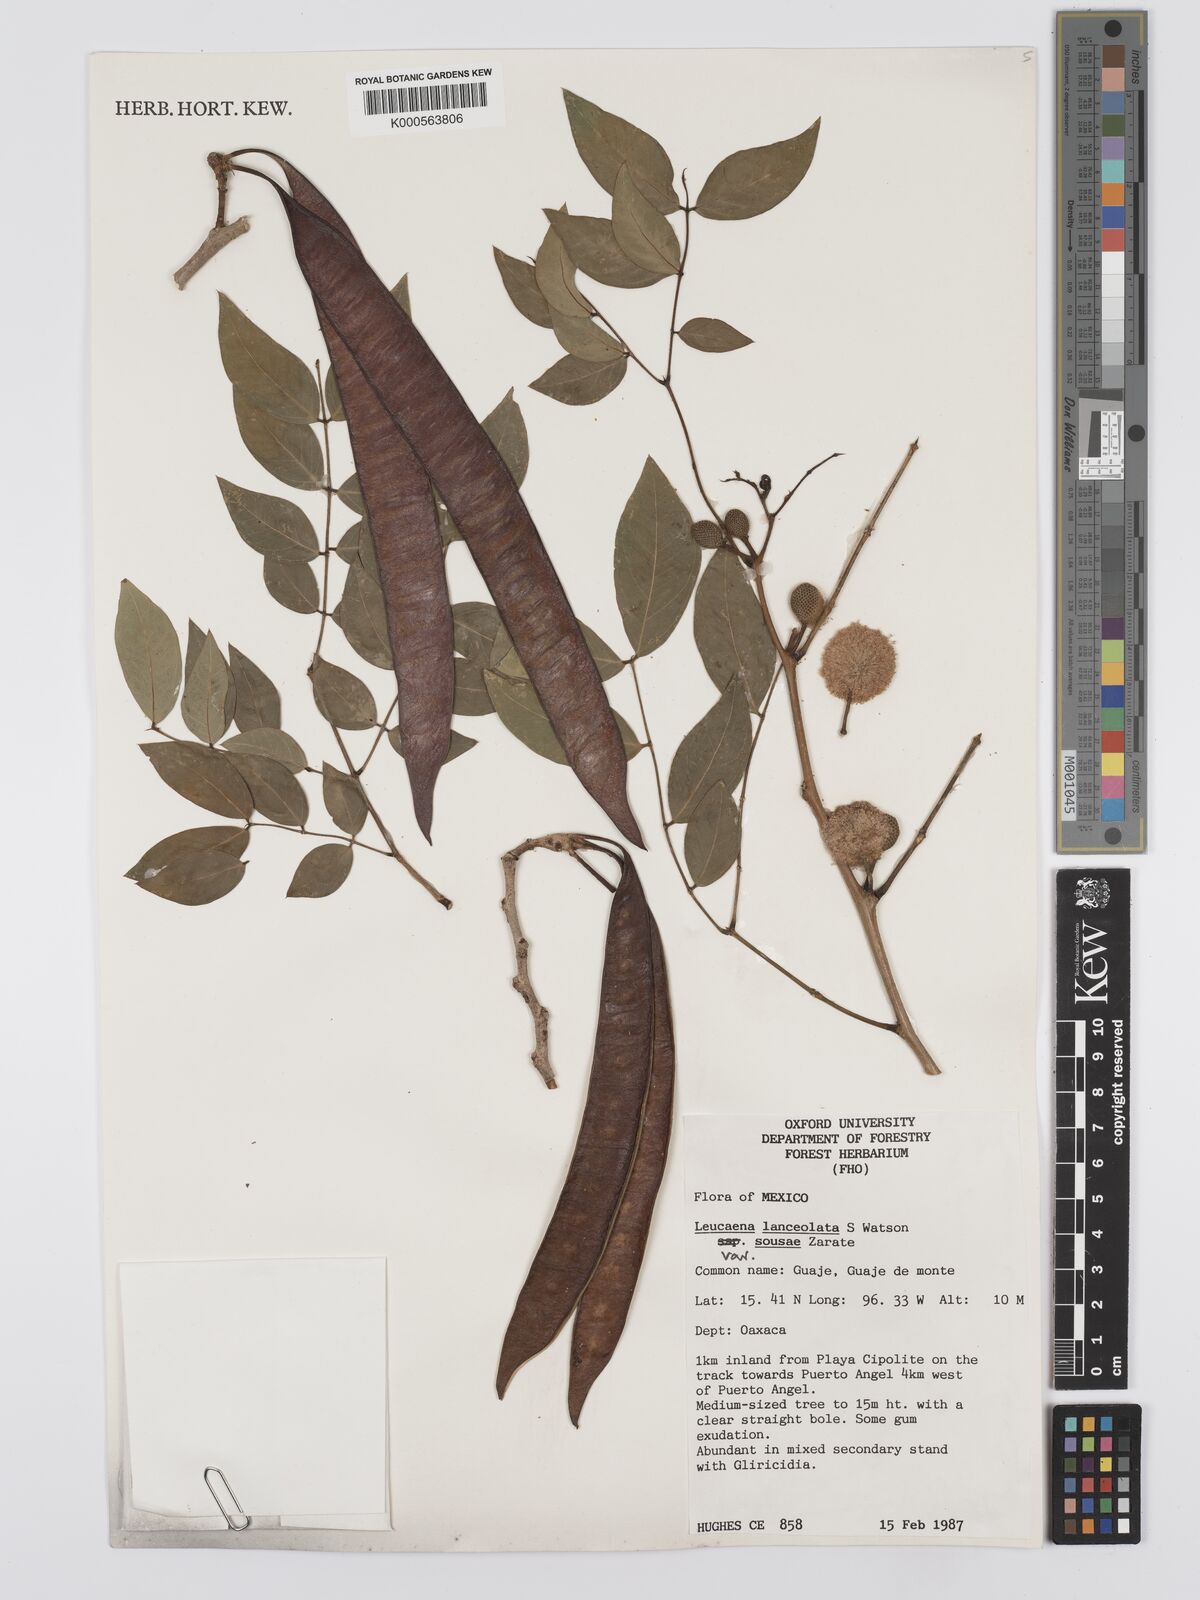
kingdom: Plantae
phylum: Tracheophyta
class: Magnoliopsida
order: Fabales
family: Fabaceae
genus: Leucaena
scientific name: Leucaena lanceolata
